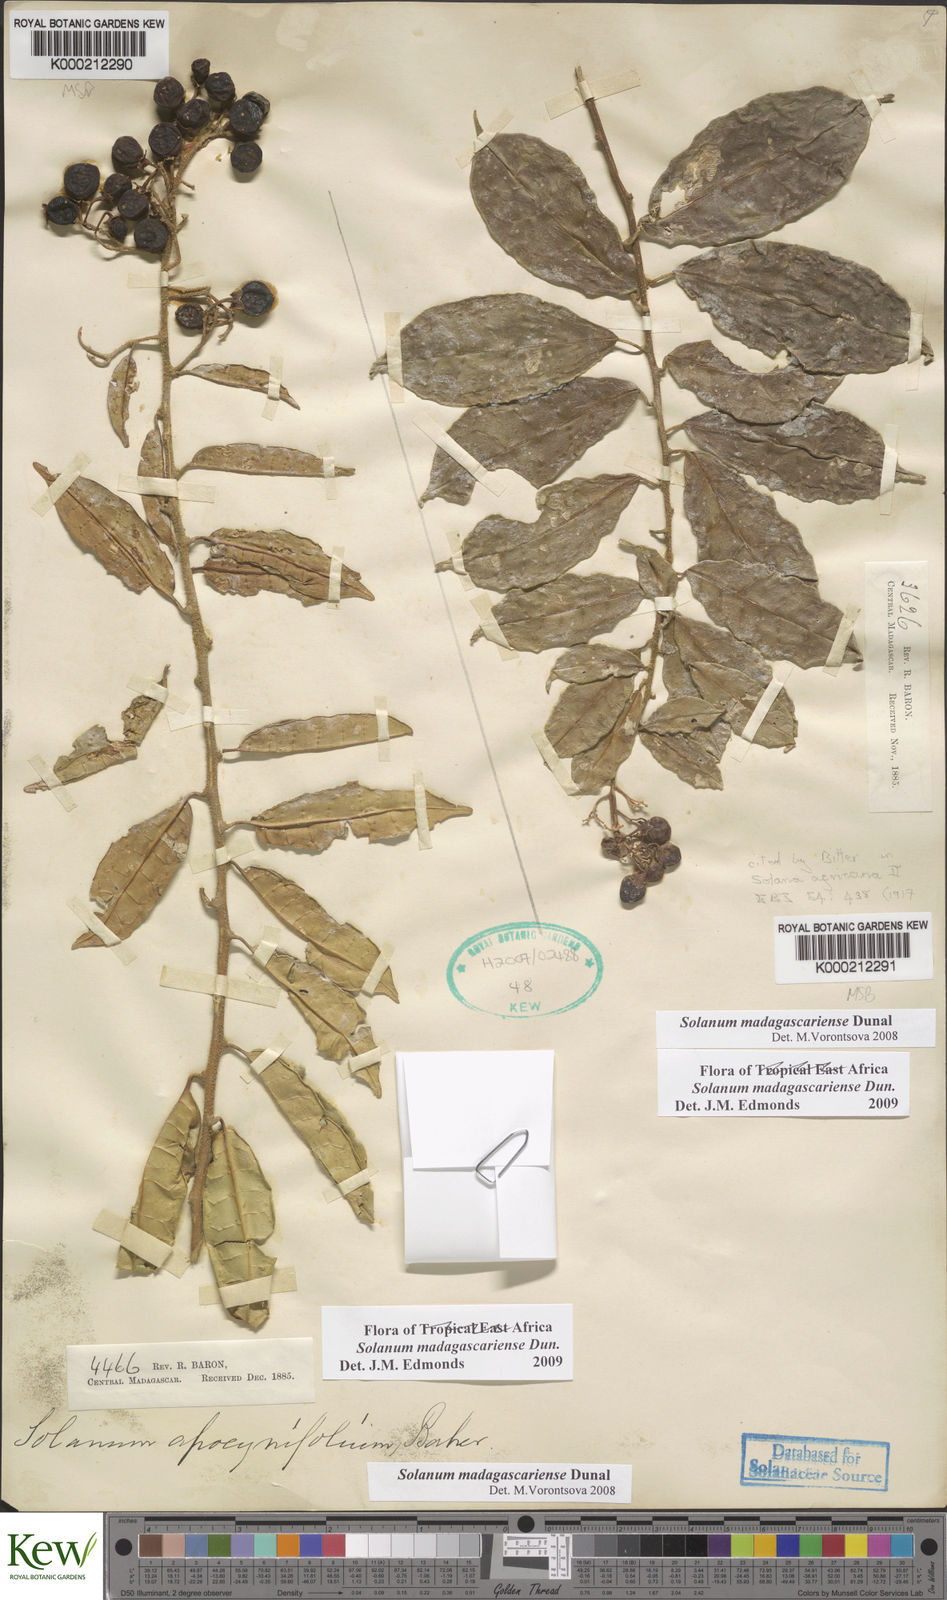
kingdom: Plantae
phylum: Tracheophyta
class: Magnoliopsida
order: Solanales
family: Solanaceae
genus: Solanum
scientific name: Solanum madagascariense
